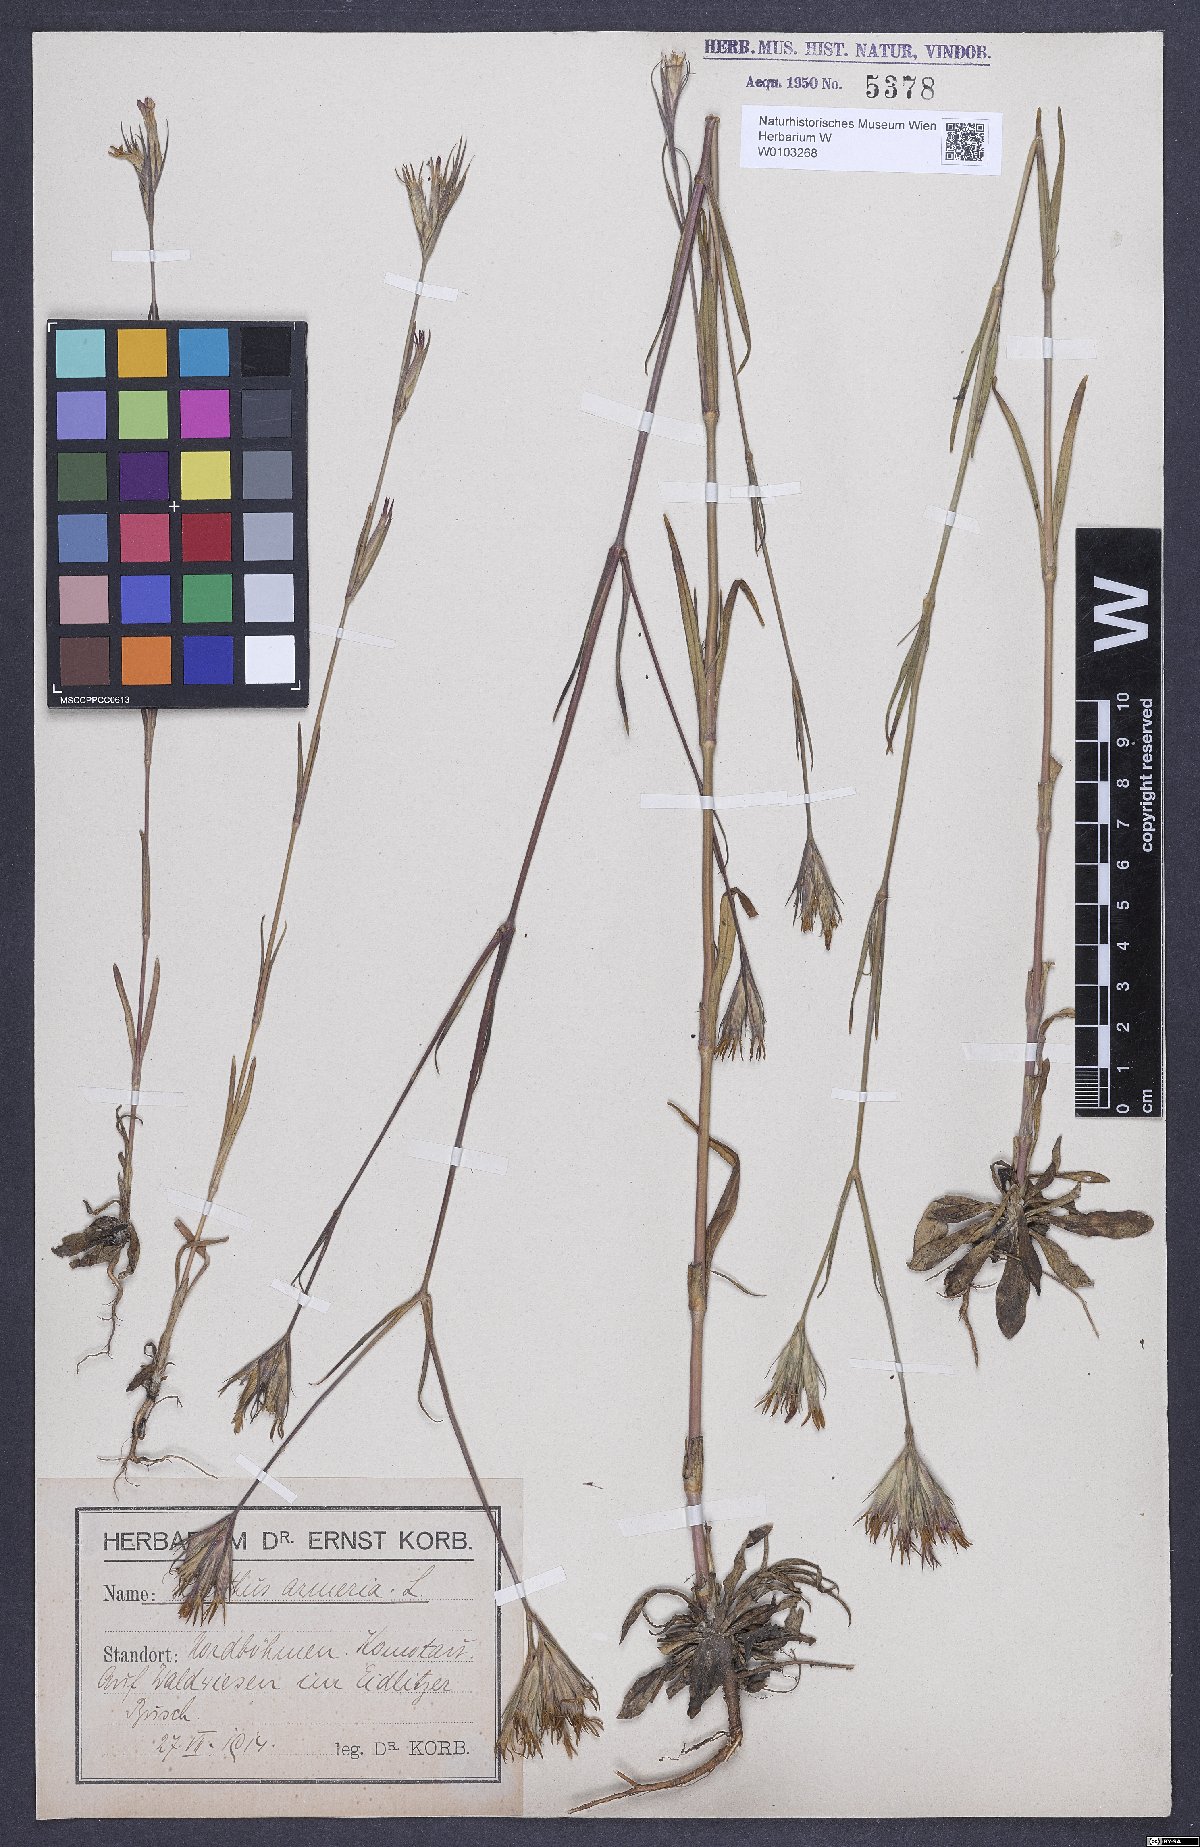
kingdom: Plantae
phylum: Tracheophyta
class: Magnoliopsida
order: Caryophyllales
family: Caryophyllaceae
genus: Dianthus
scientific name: Dianthus armeria
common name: Deptford pink
